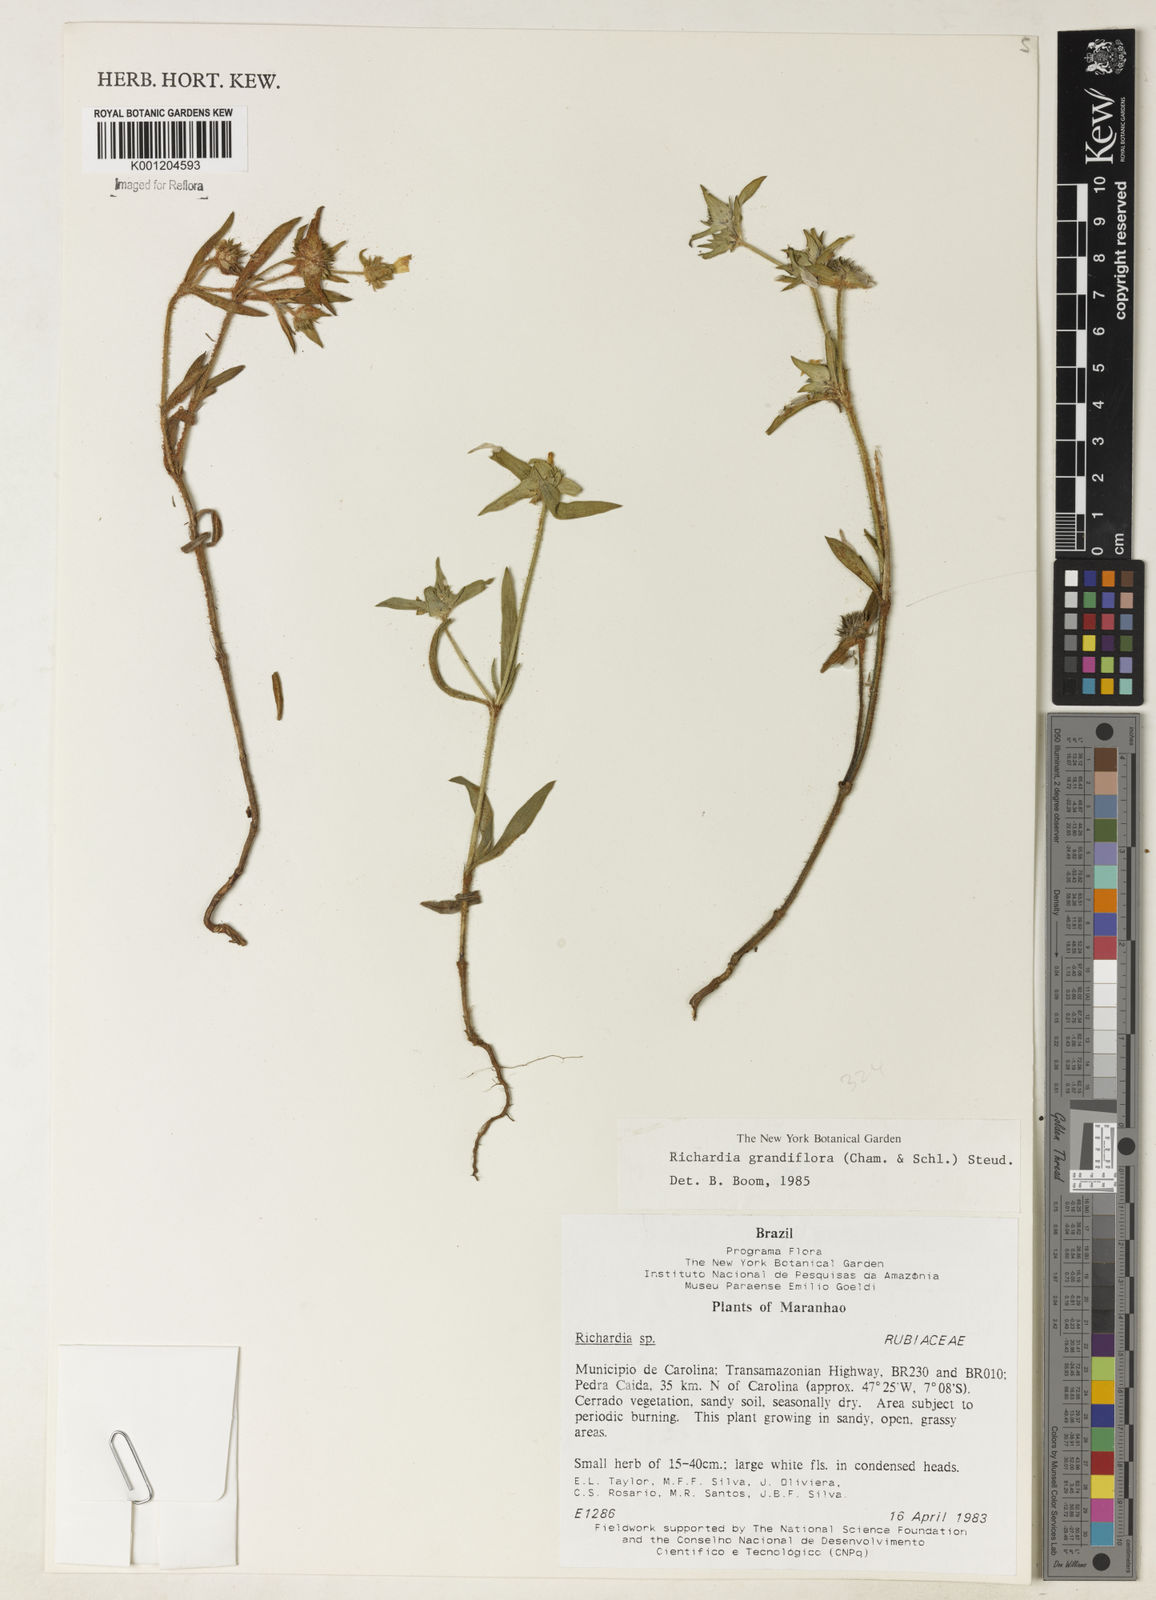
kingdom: Plantae
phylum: Tracheophyta
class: Magnoliopsida
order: Gentianales
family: Rubiaceae
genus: Richardia
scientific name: Richardia grandiflora
